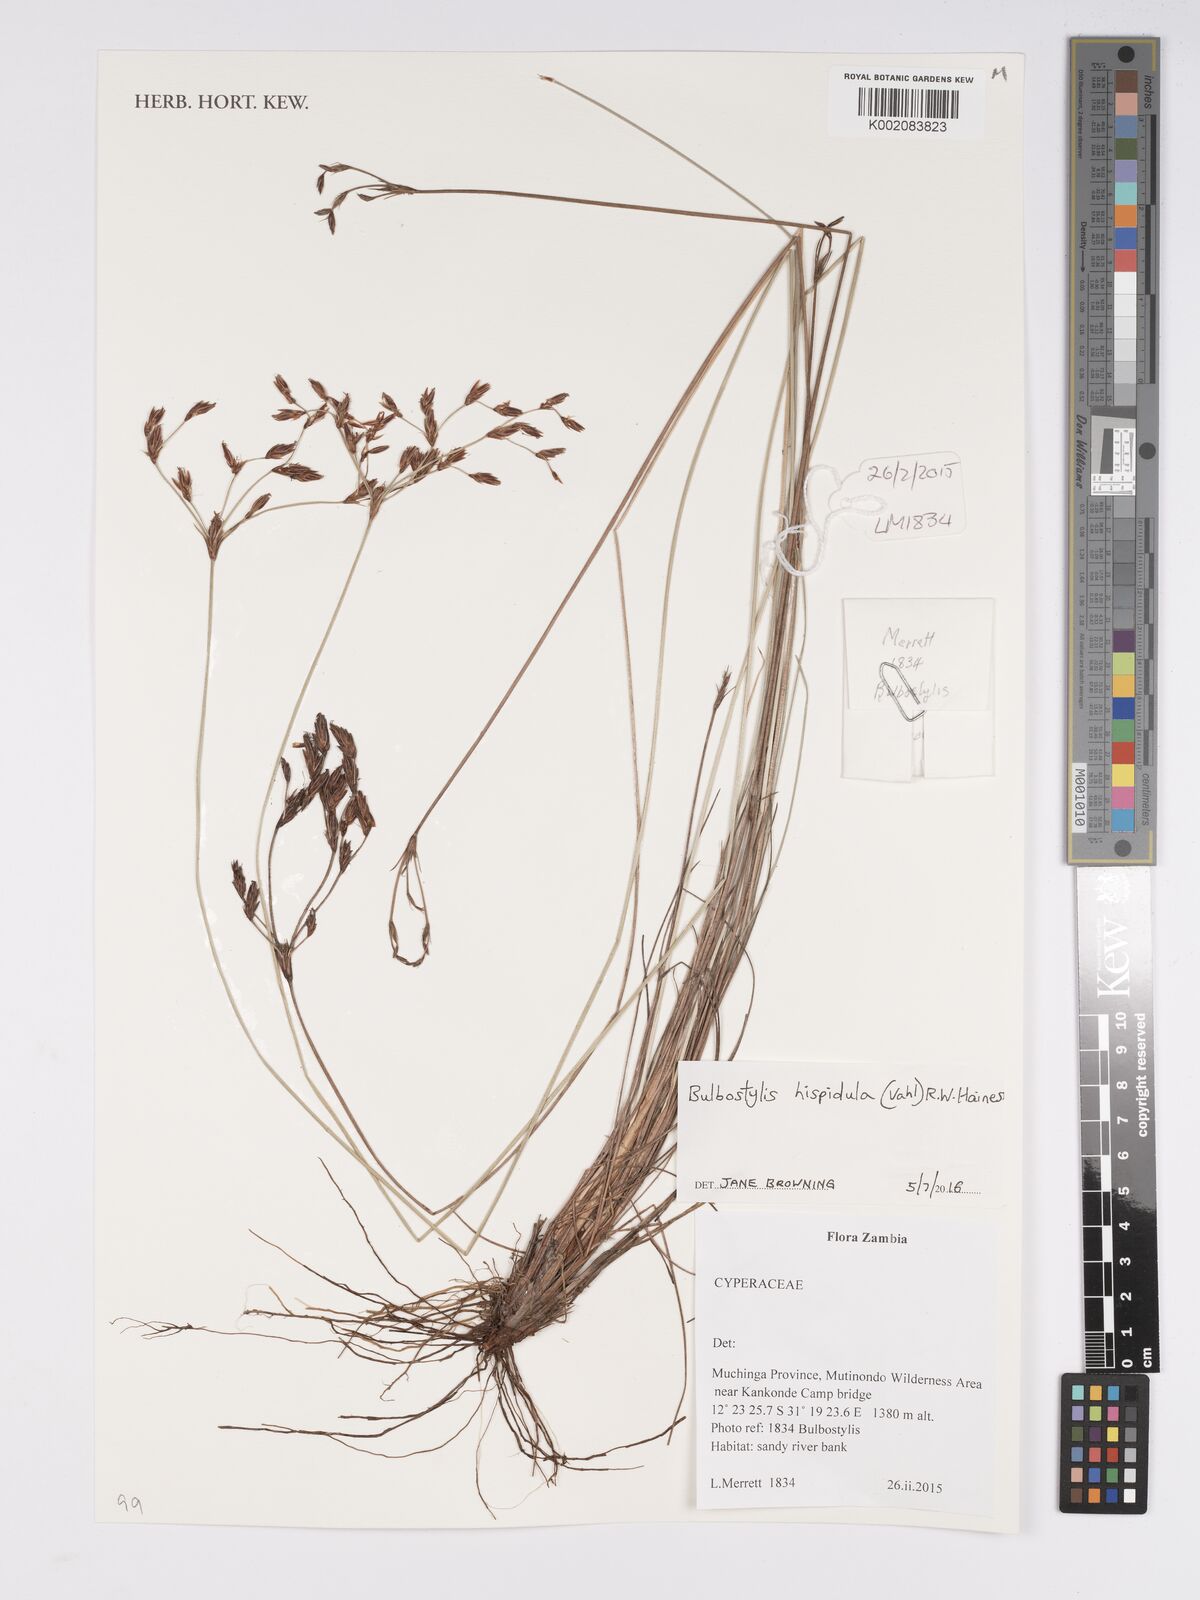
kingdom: Plantae
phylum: Tracheophyta
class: Liliopsida
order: Poales
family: Cyperaceae
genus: Bulbostylis
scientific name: Bulbostylis hispidula
